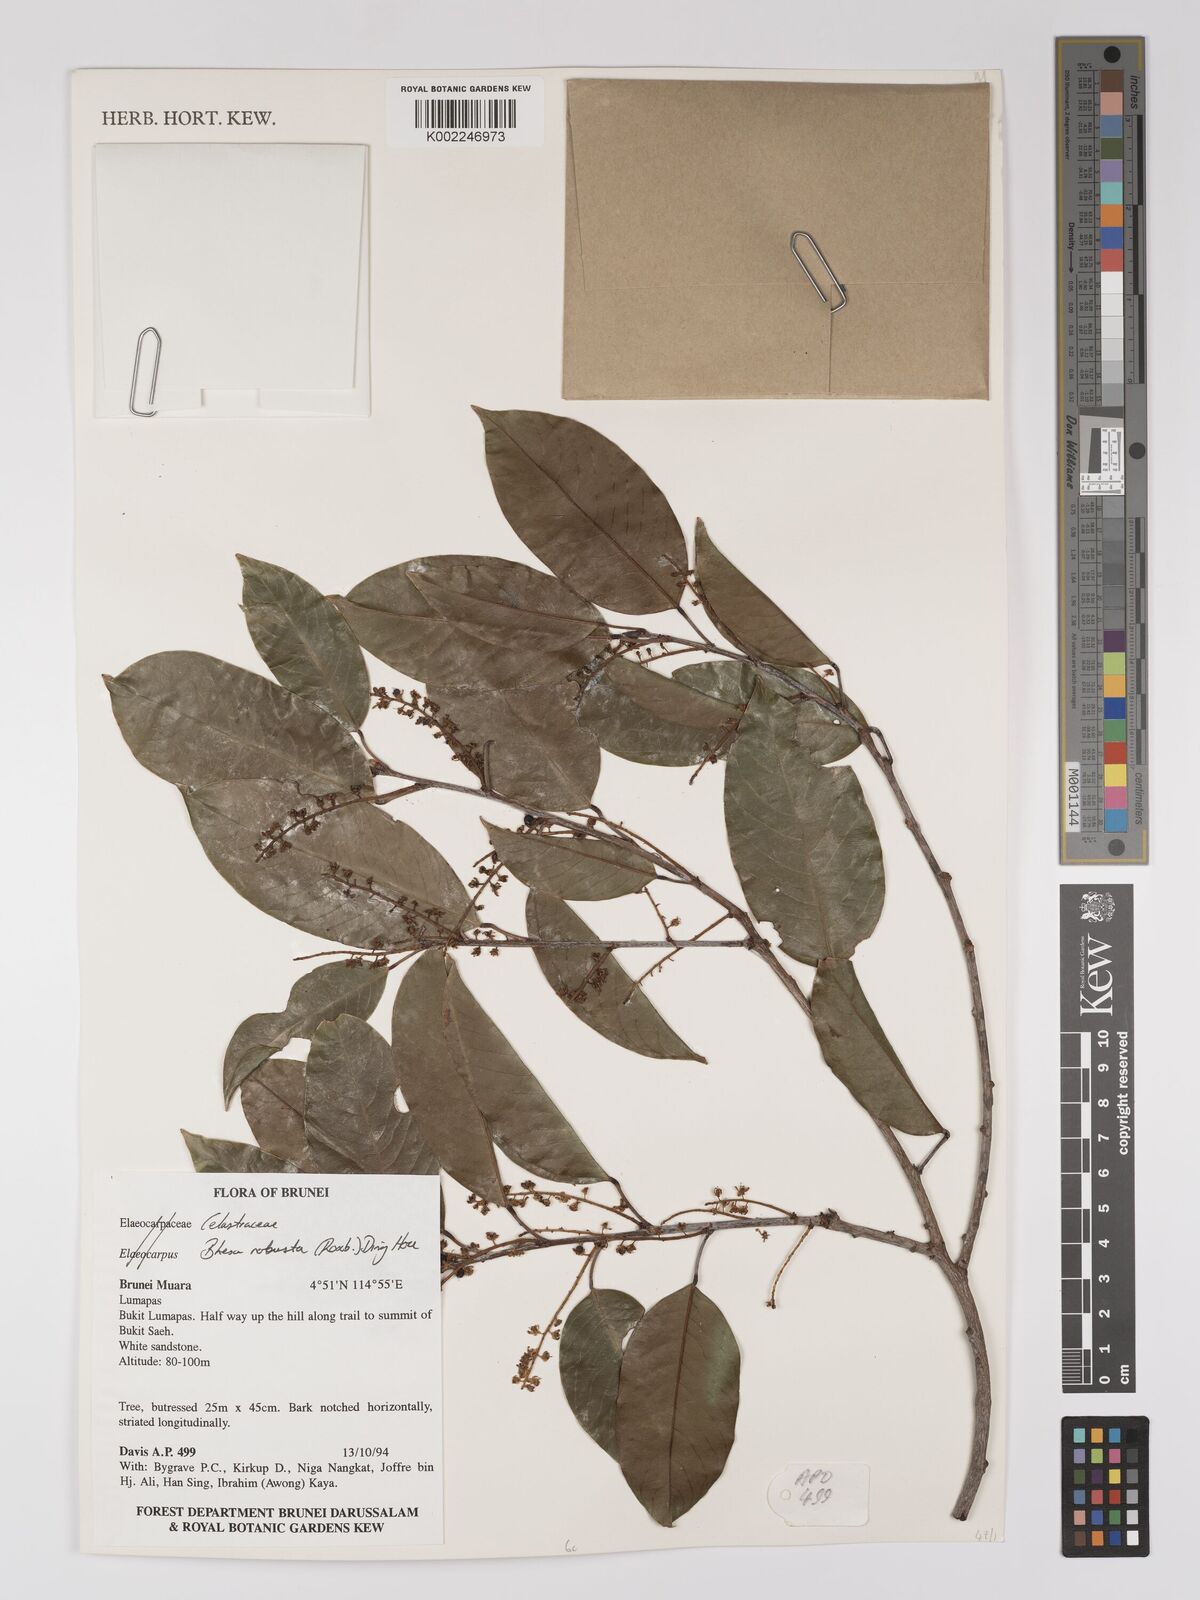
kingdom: Plantae
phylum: Tracheophyta
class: Magnoliopsida
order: Malpighiales
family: Centroplacaceae
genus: Bhesa
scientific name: Bhesa robusta
